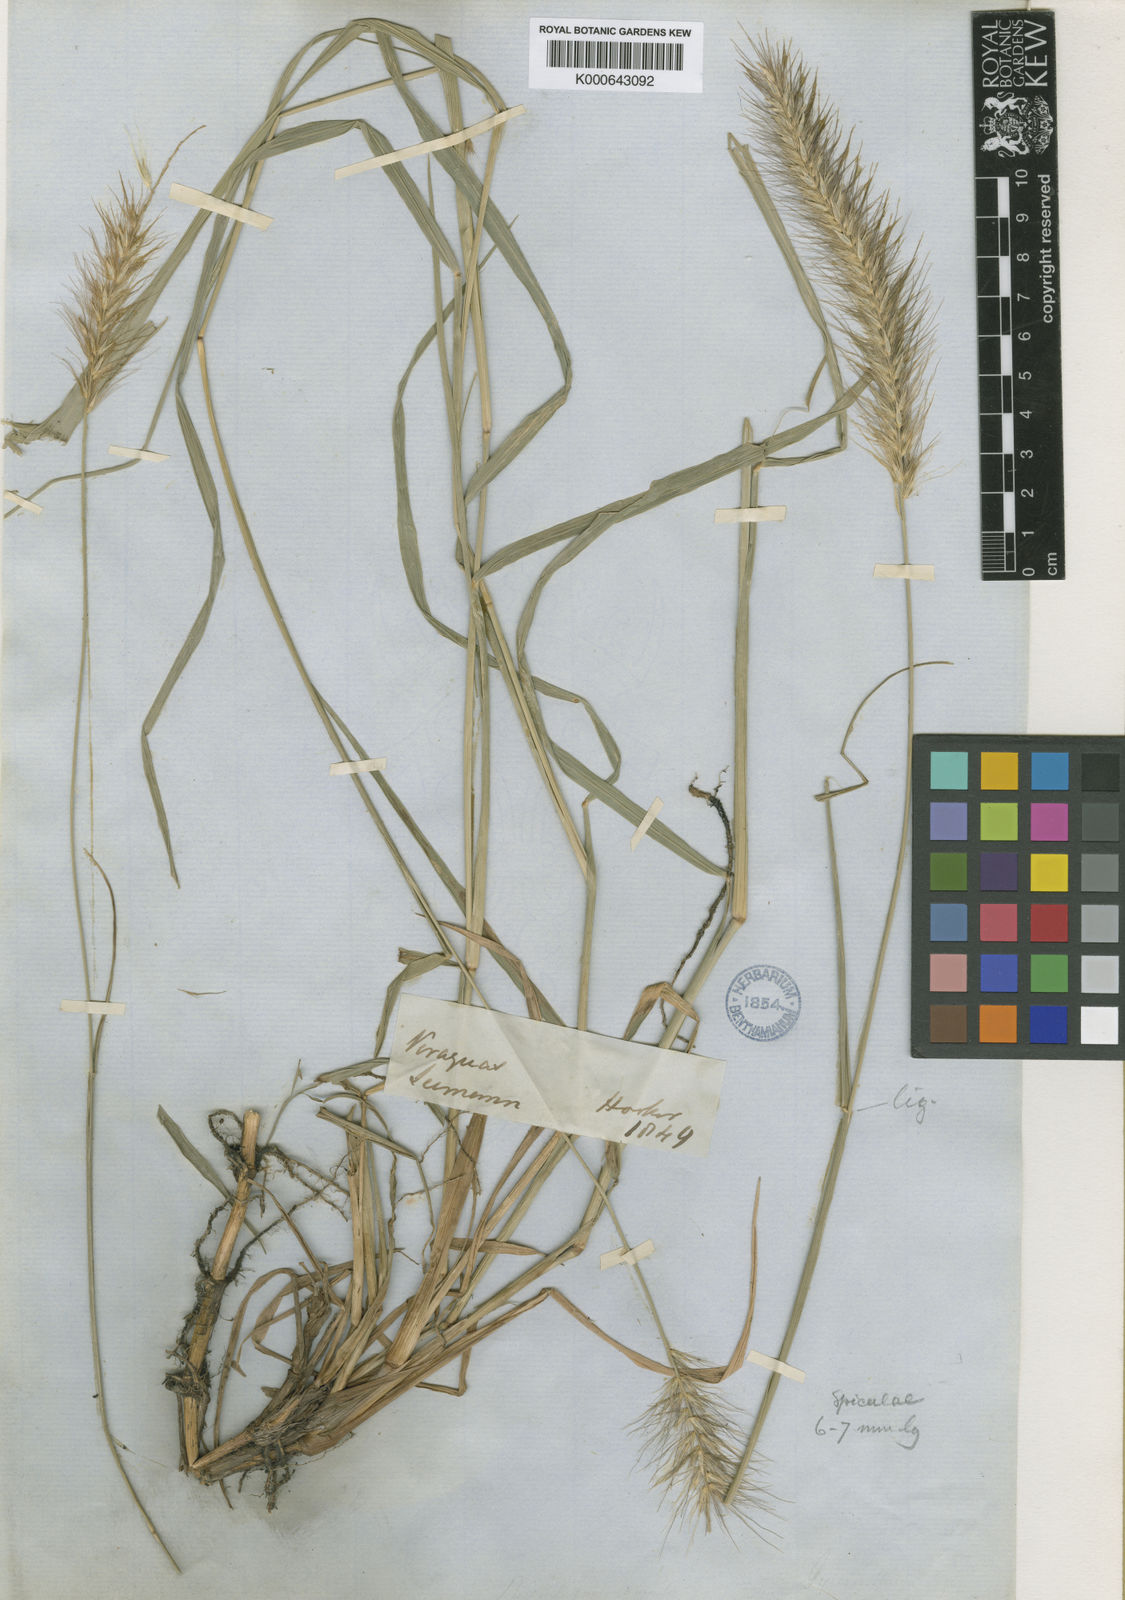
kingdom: Plantae
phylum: Tracheophyta
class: Liliopsida
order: Poales
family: Poaceae
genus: Cenchrus
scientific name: Cenchrus complanatus
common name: Nicaraguan fountaingrass
